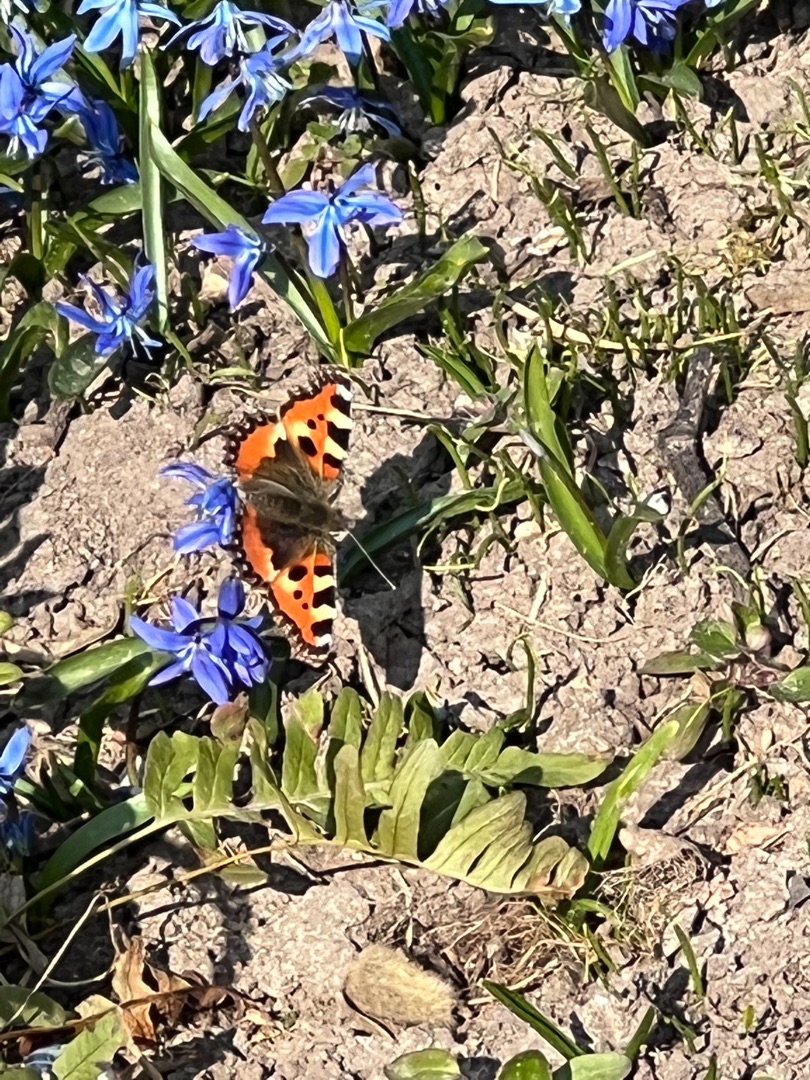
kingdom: Animalia
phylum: Arthropoda
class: Insecta
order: Lepidoptera
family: Nymphalidae
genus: Aglais
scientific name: Aglais urticae
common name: Nældens takvinge
